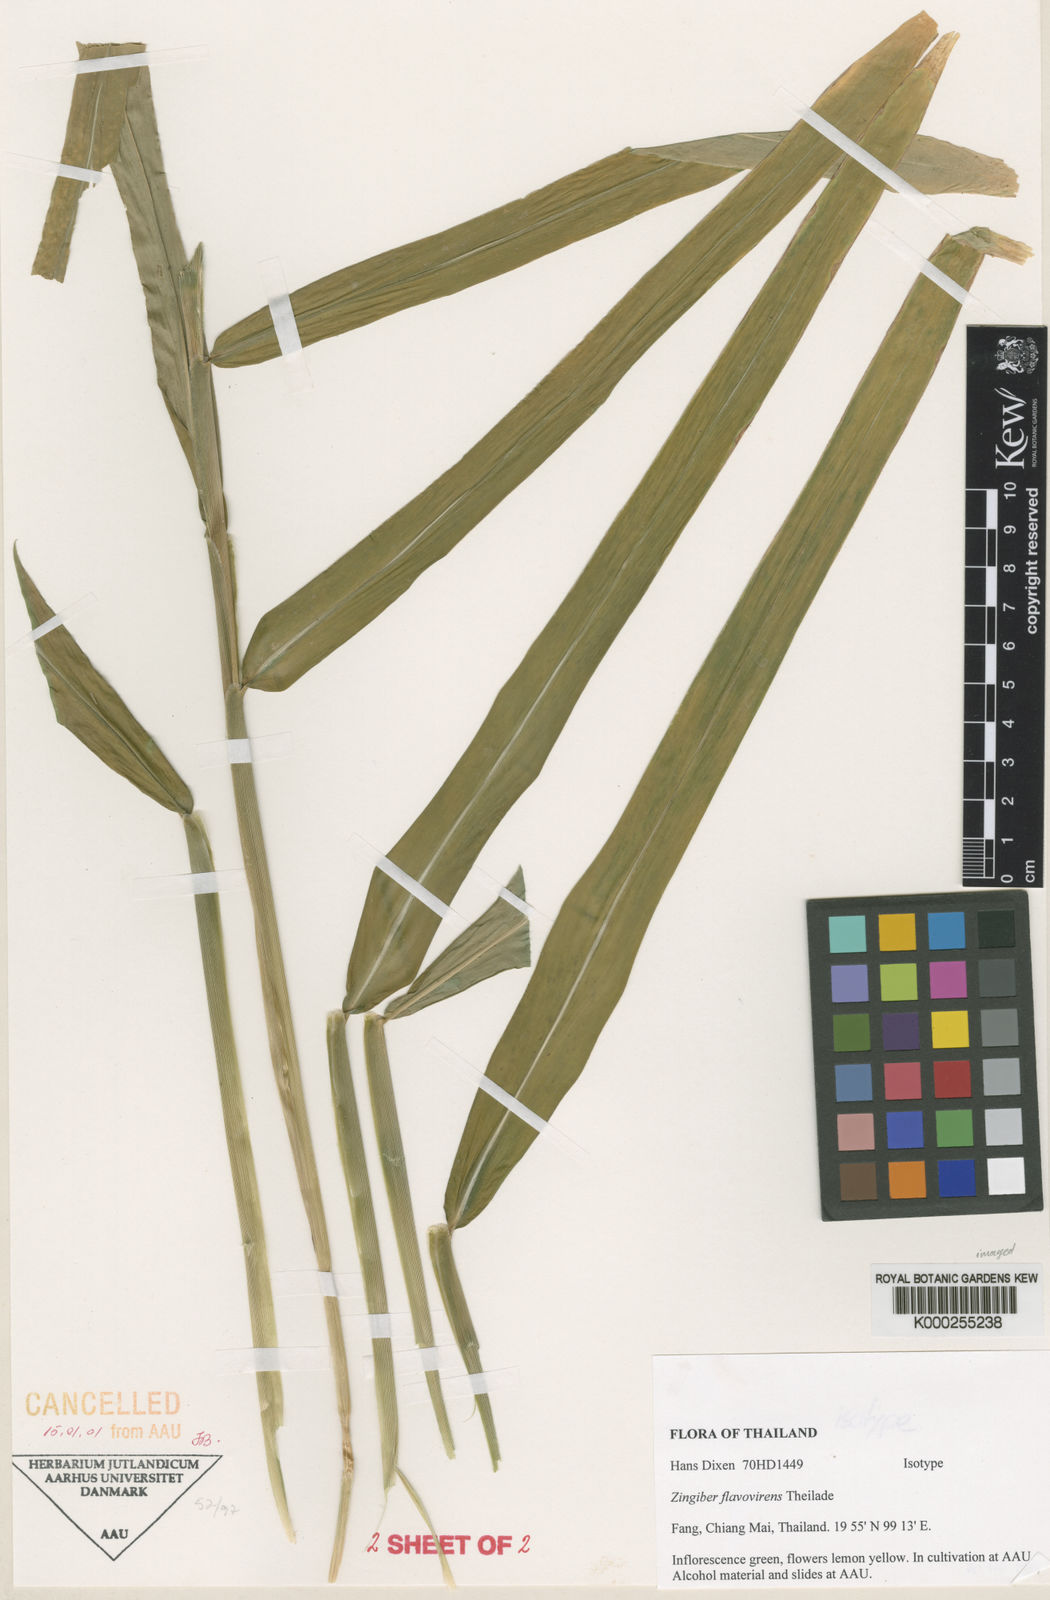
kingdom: Plantae
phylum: Tracheophyta
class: Liliopsida
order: Zingiberales
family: Zingiberaceae
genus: Zingiber
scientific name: Zingiber flavovirens
